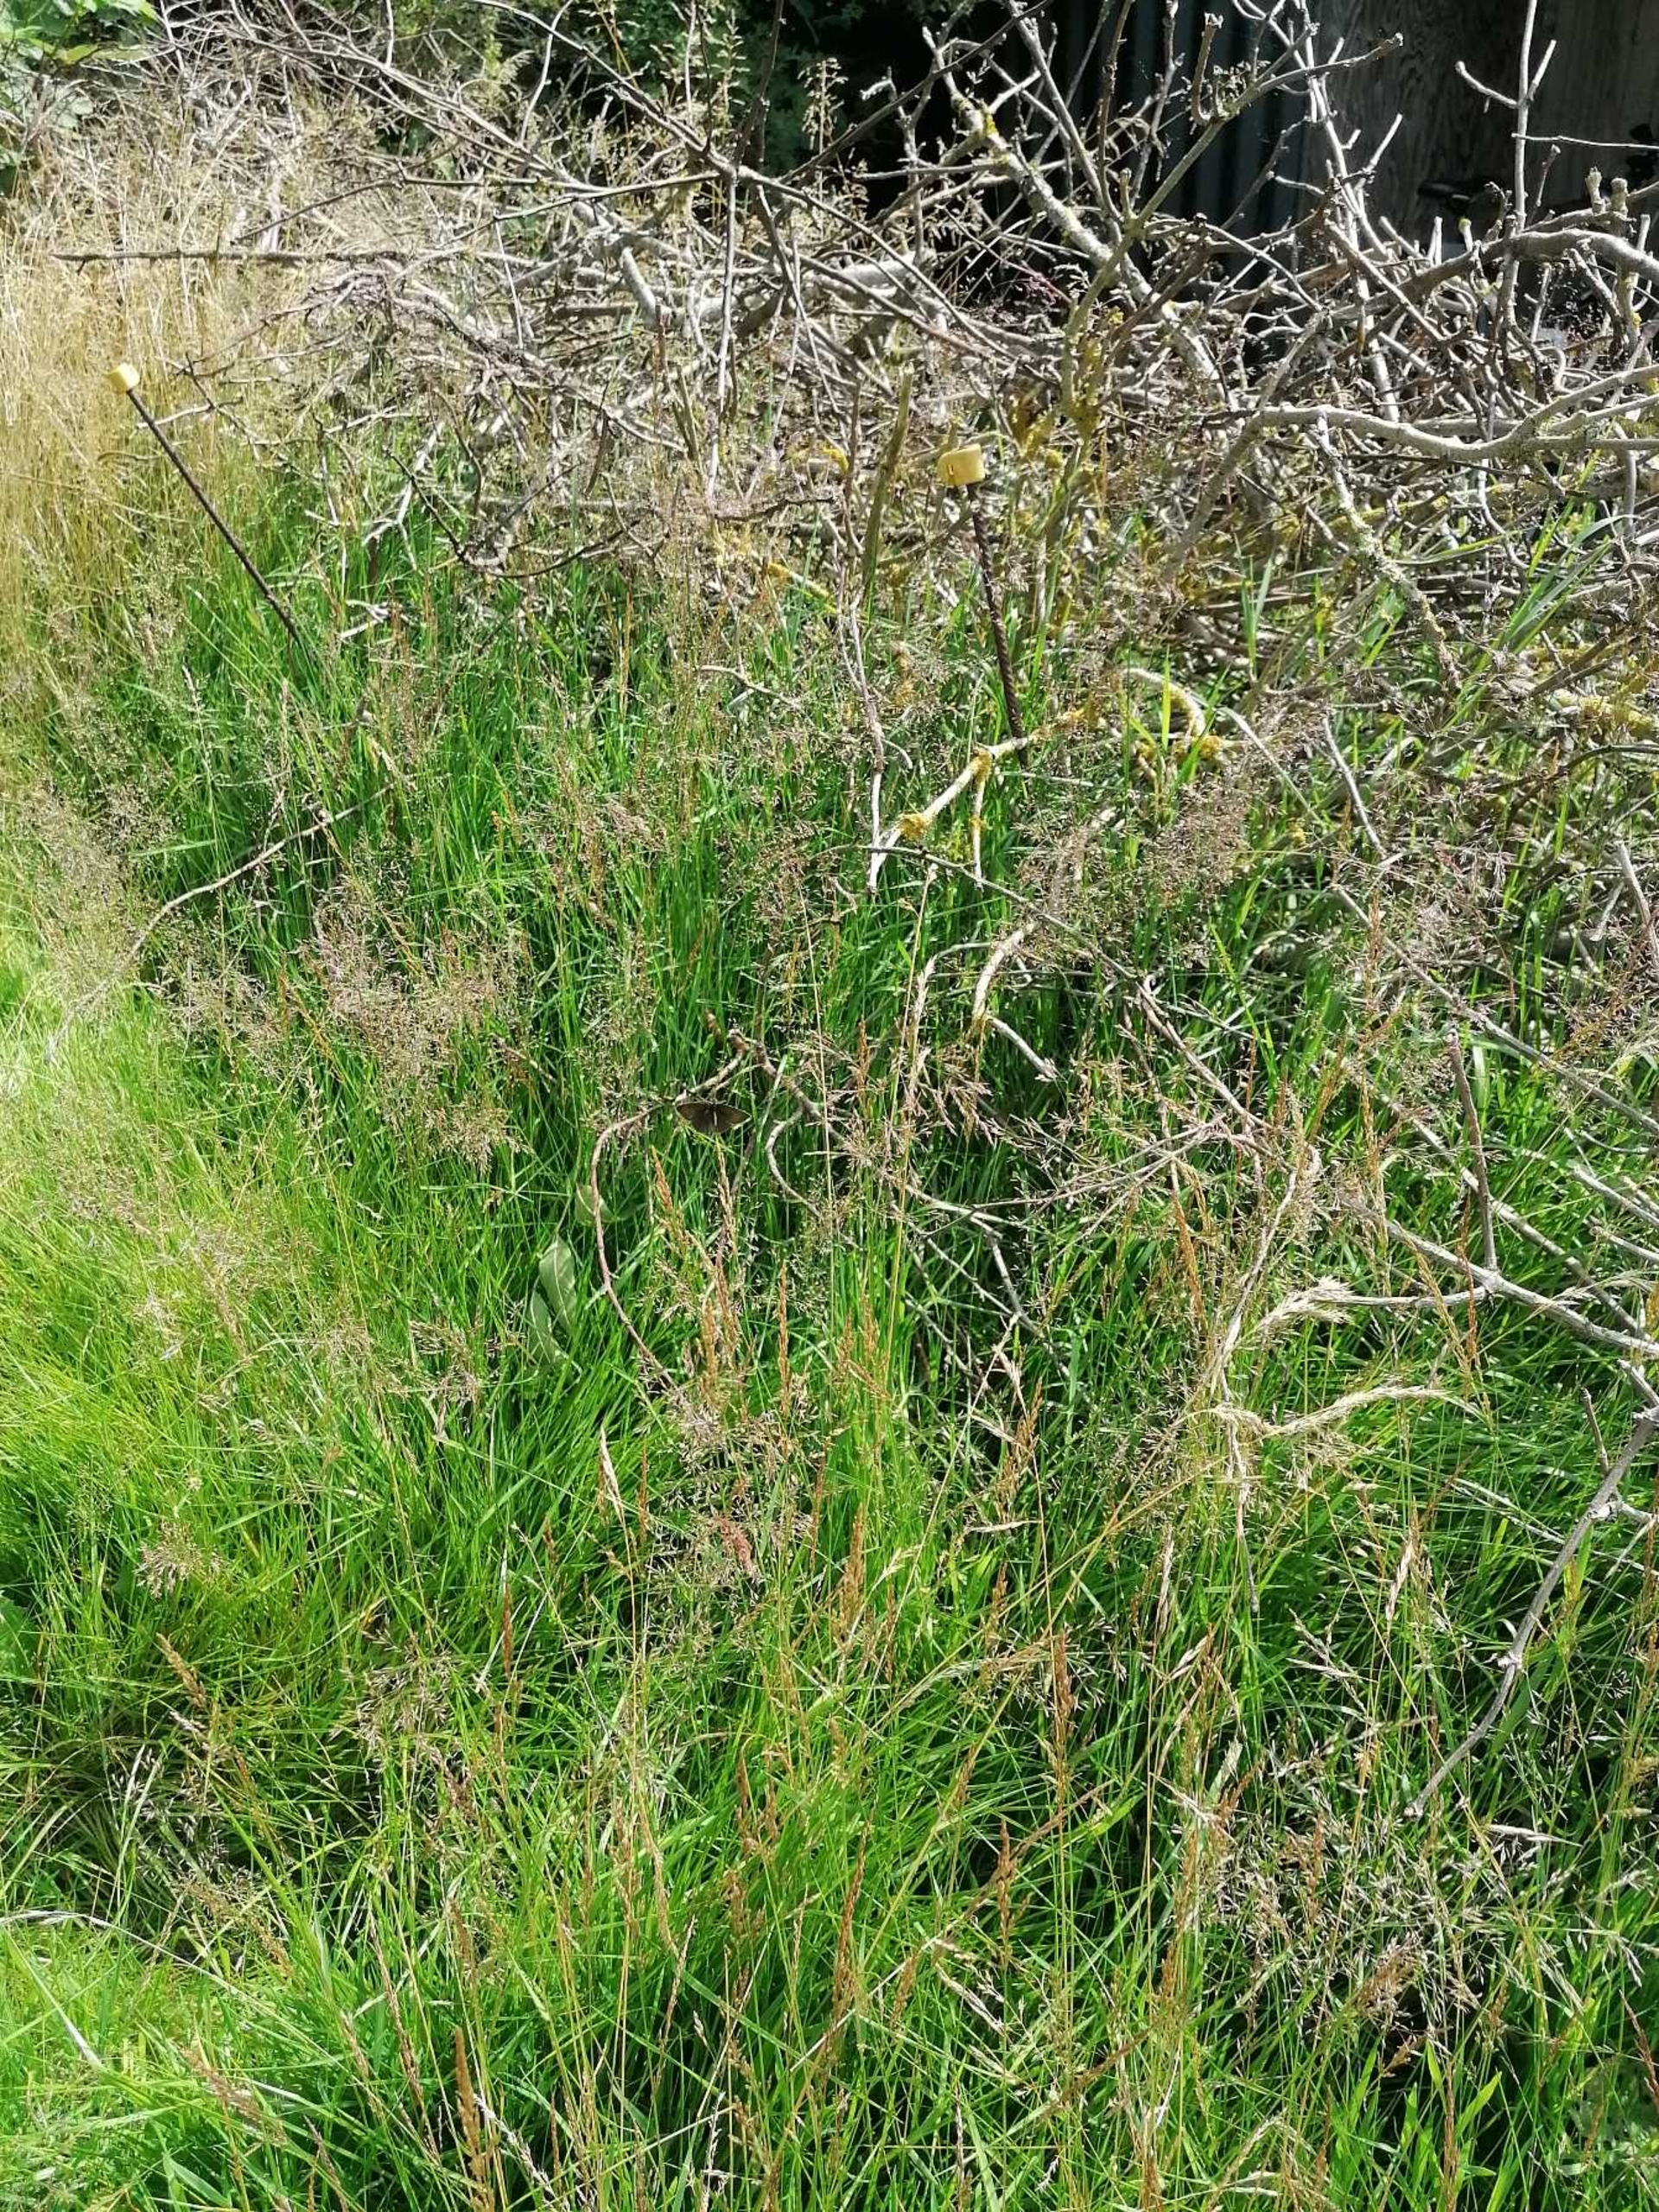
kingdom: Animalia
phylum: Arthropoda
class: Insecta
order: Lepidoptera
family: Nymphalidae
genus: Aphantopus
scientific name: Aphantopus hyperantus
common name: Engrandøje
